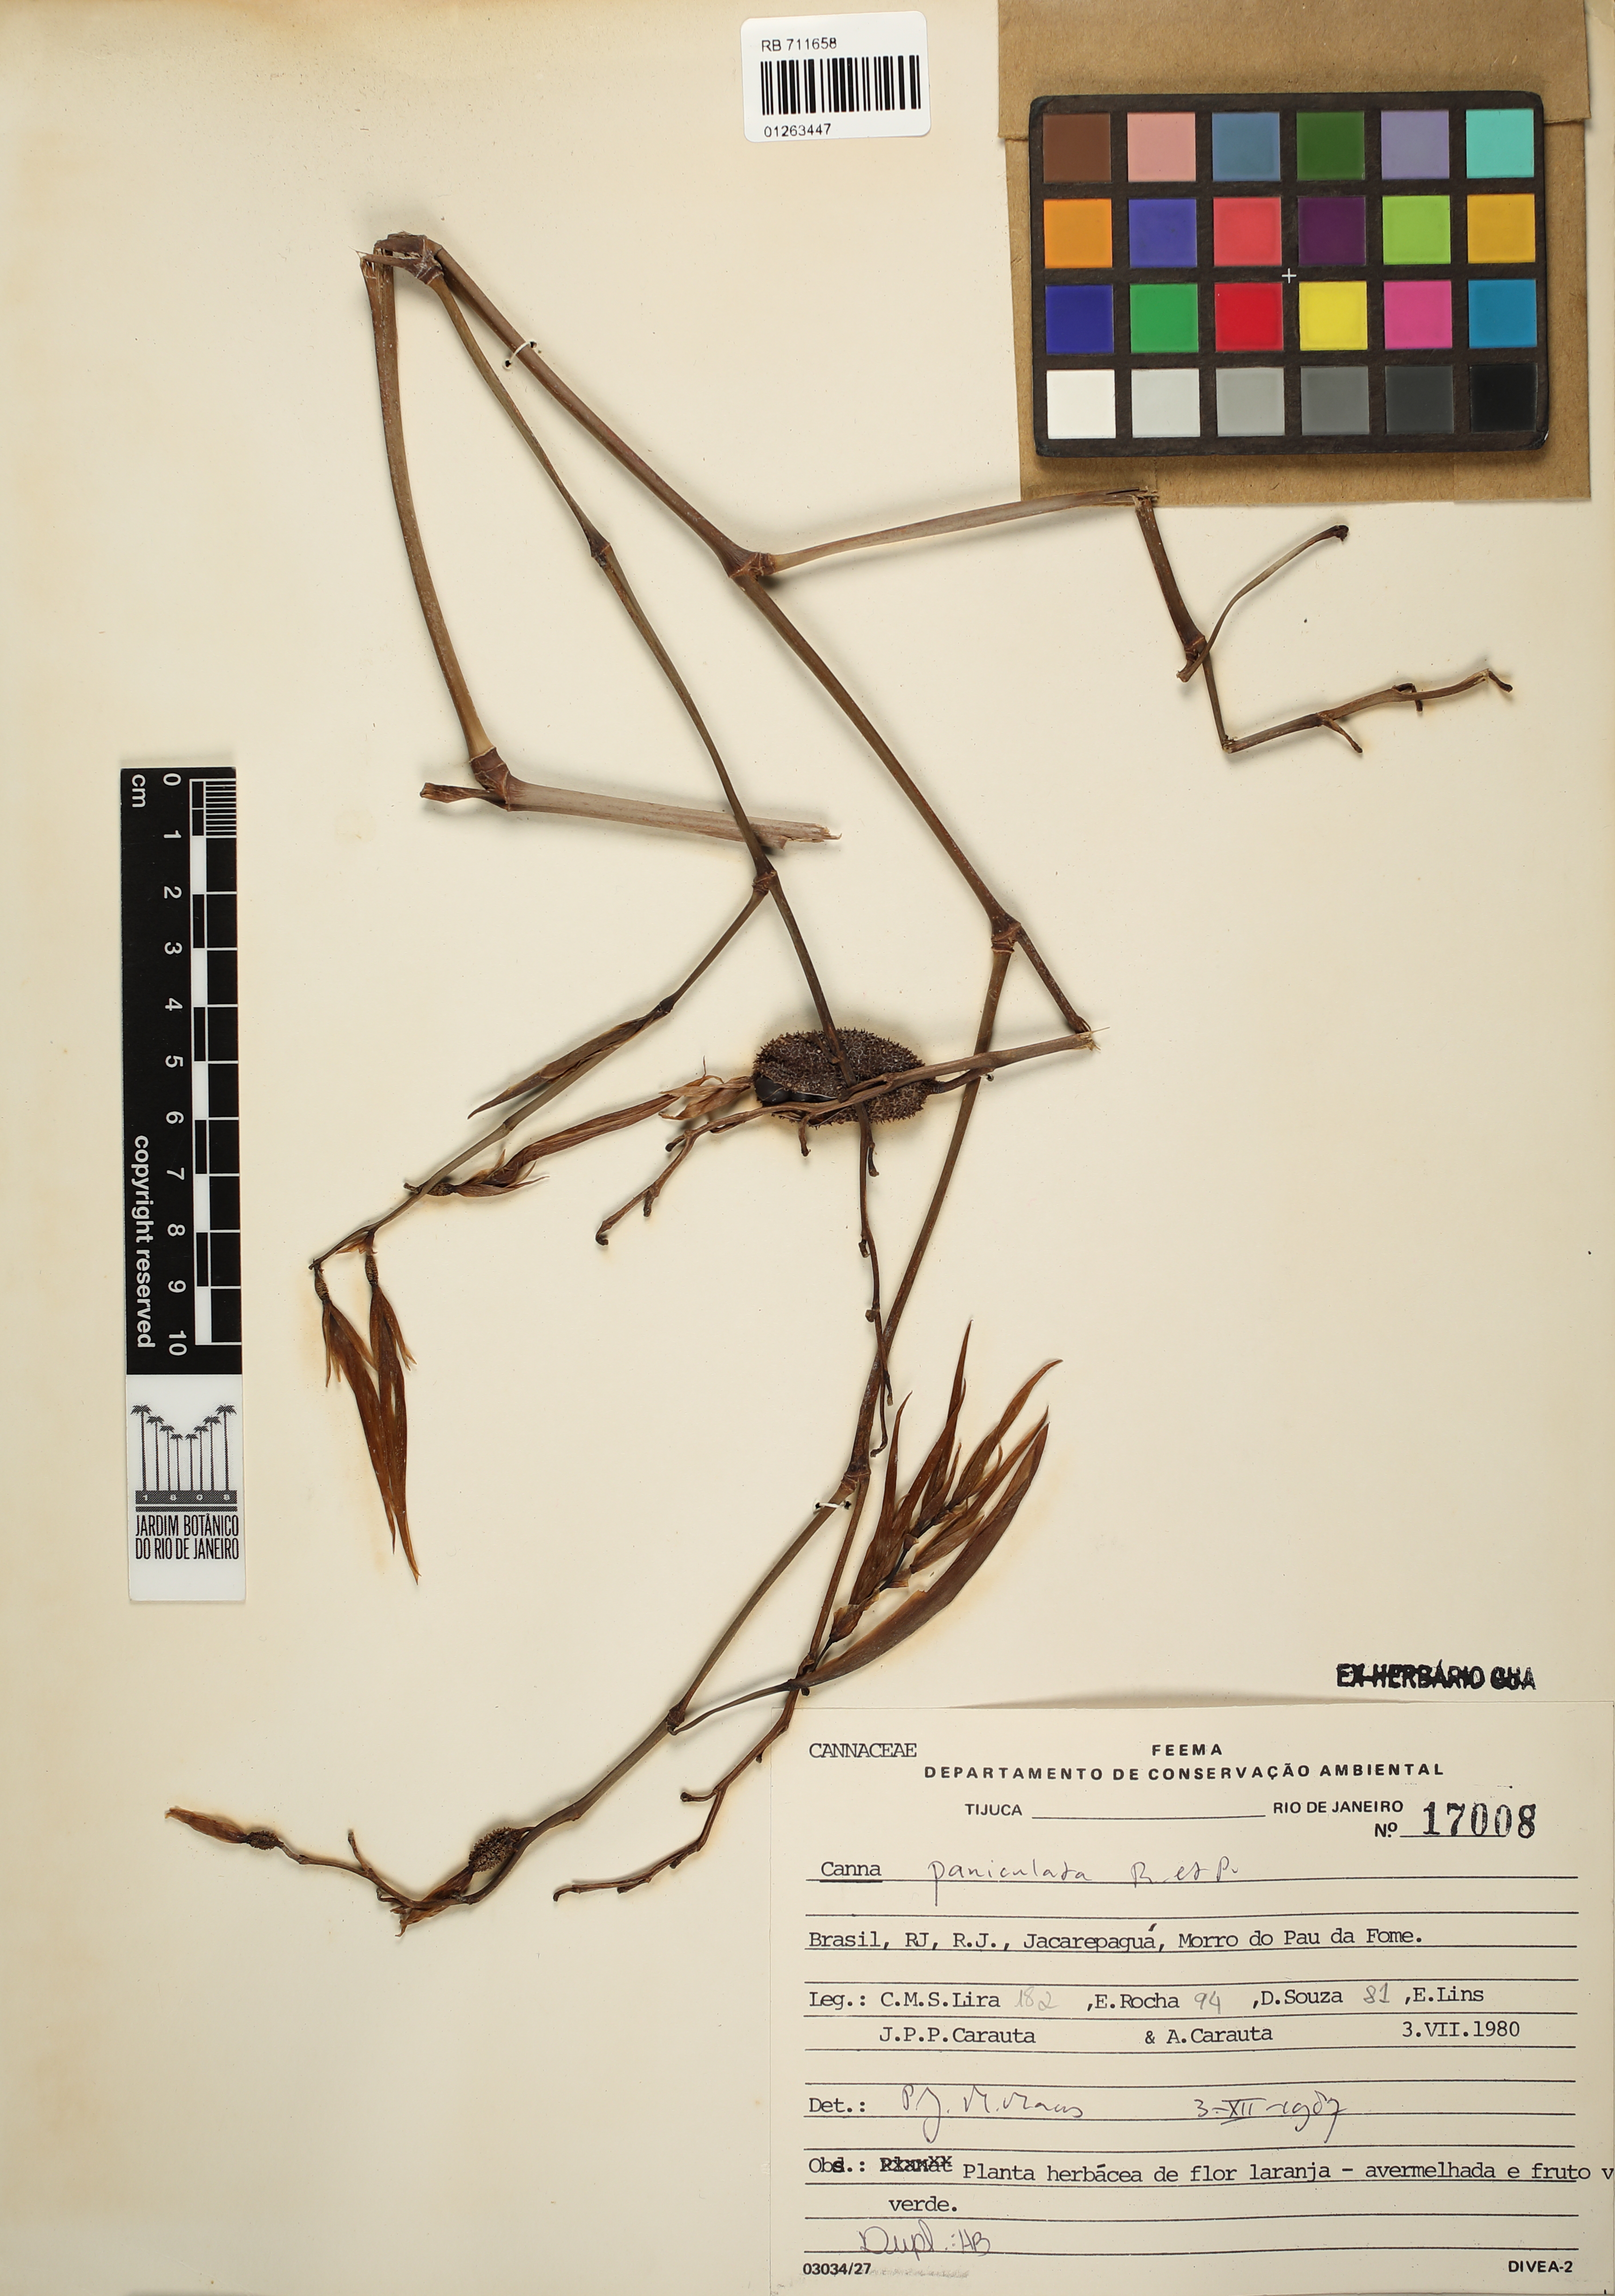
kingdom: Plantae
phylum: Tracheophyta
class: Liliopsida
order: Zingiberales
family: Cannaceae
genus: Canna
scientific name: Canna paniculata
